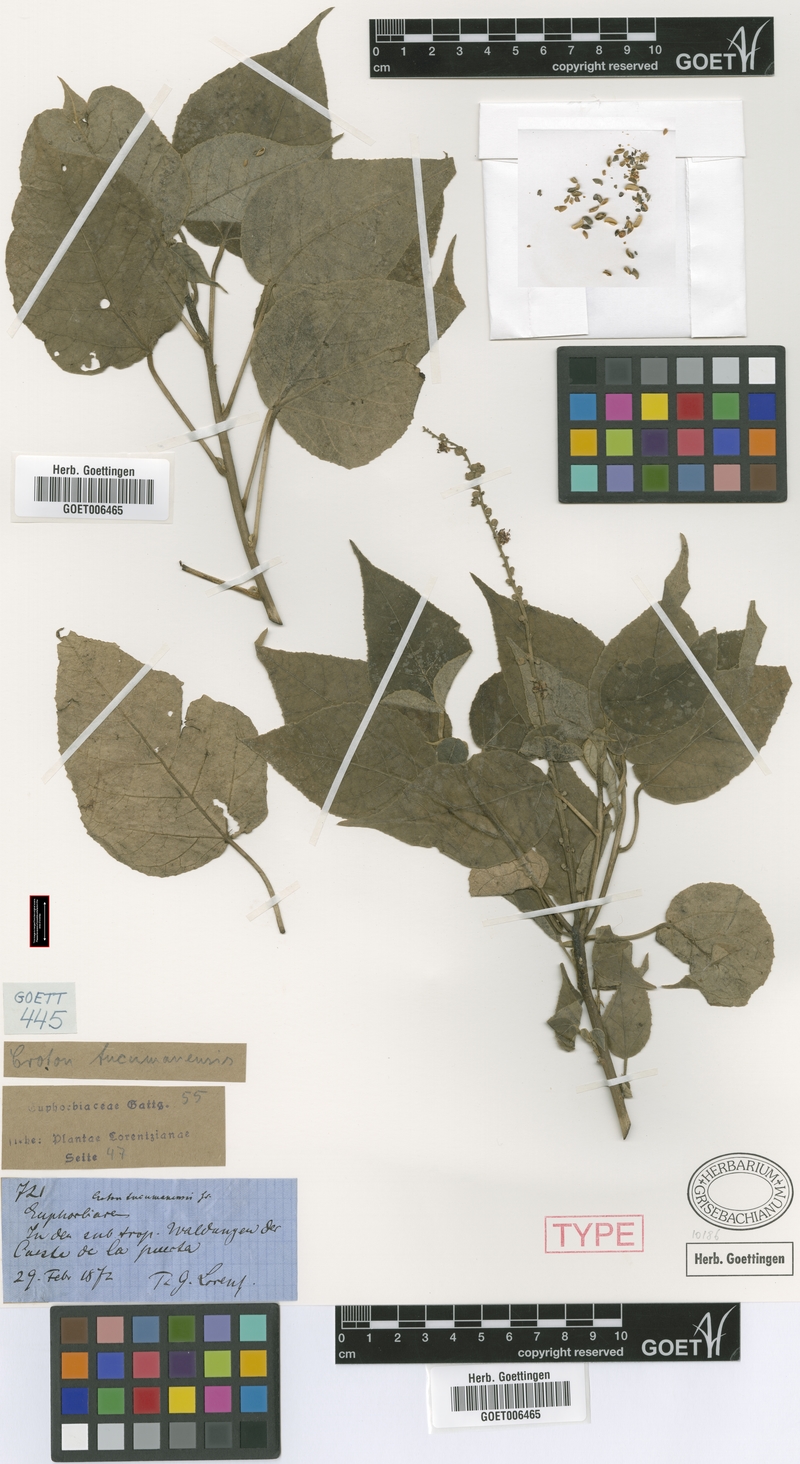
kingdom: Plantae
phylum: Tracheophyta
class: Magnoliopsida
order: Malpighiales
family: Euphorbiaceae
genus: Croton
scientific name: Croton lachnostachyus
